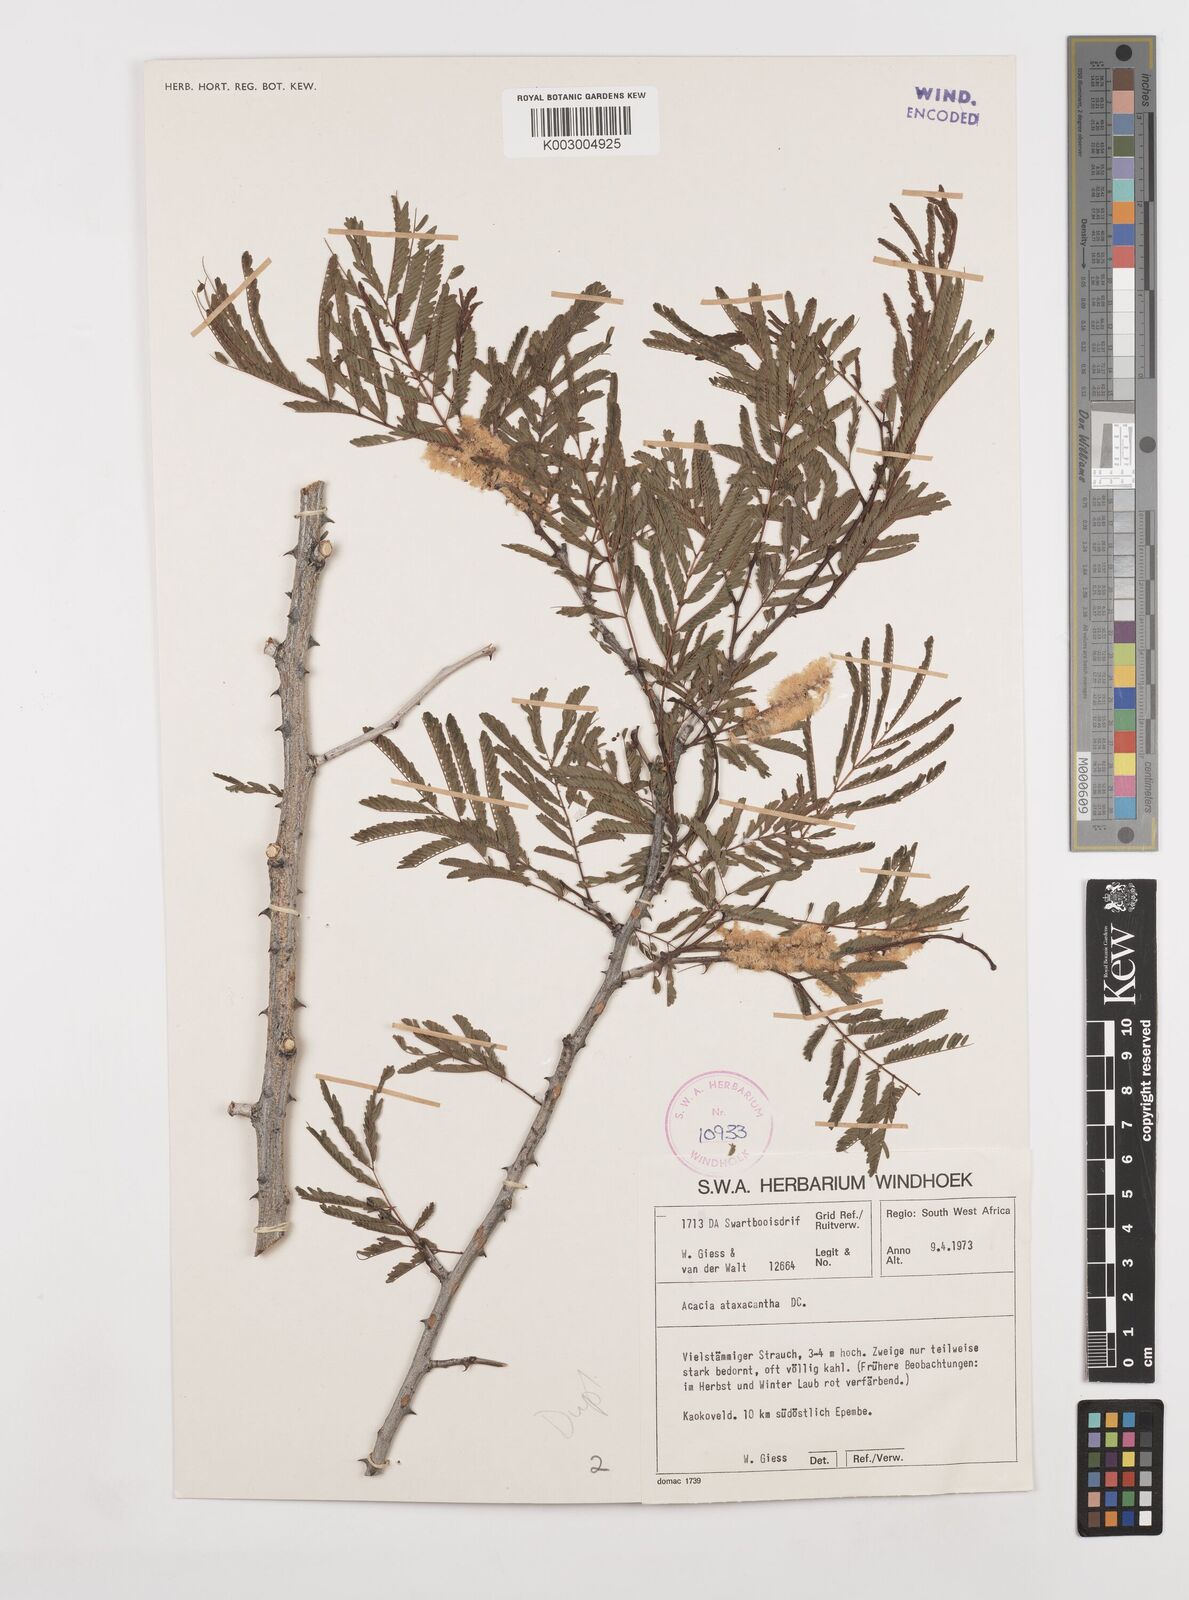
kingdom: Plantae
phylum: Tracheophyta
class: Magnoliopsida
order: Fabales
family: Fabaceae
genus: Senegalia
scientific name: Senegalia ataxacantha
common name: Flame acacia
